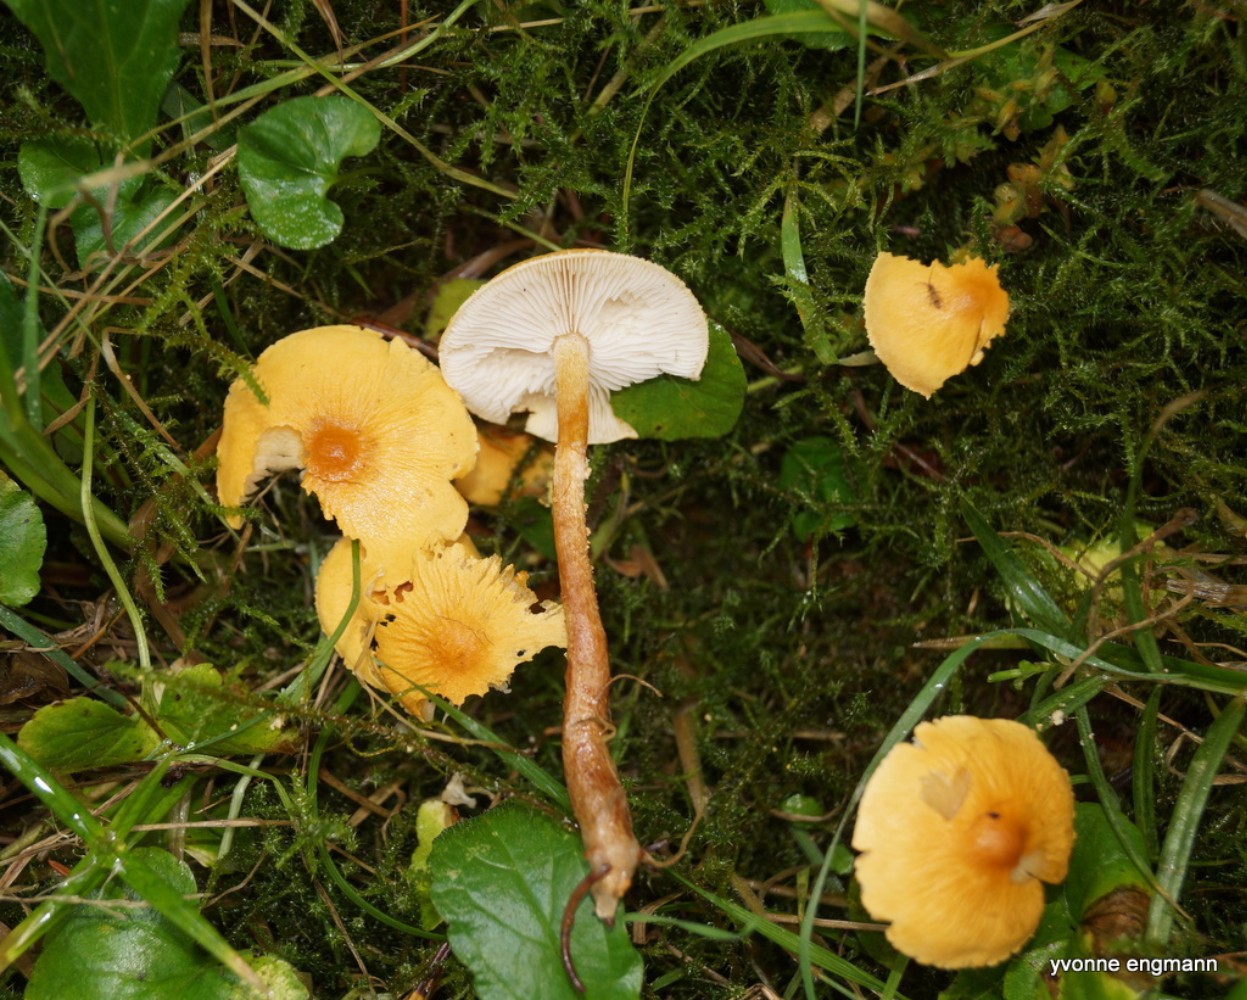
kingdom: Fungi
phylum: Basidiomycota
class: Agaricomycetes
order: Agaricales
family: Tricholomataceae
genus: Cystoderma
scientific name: Cystoderma amianthinum
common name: okkergul grynhat
